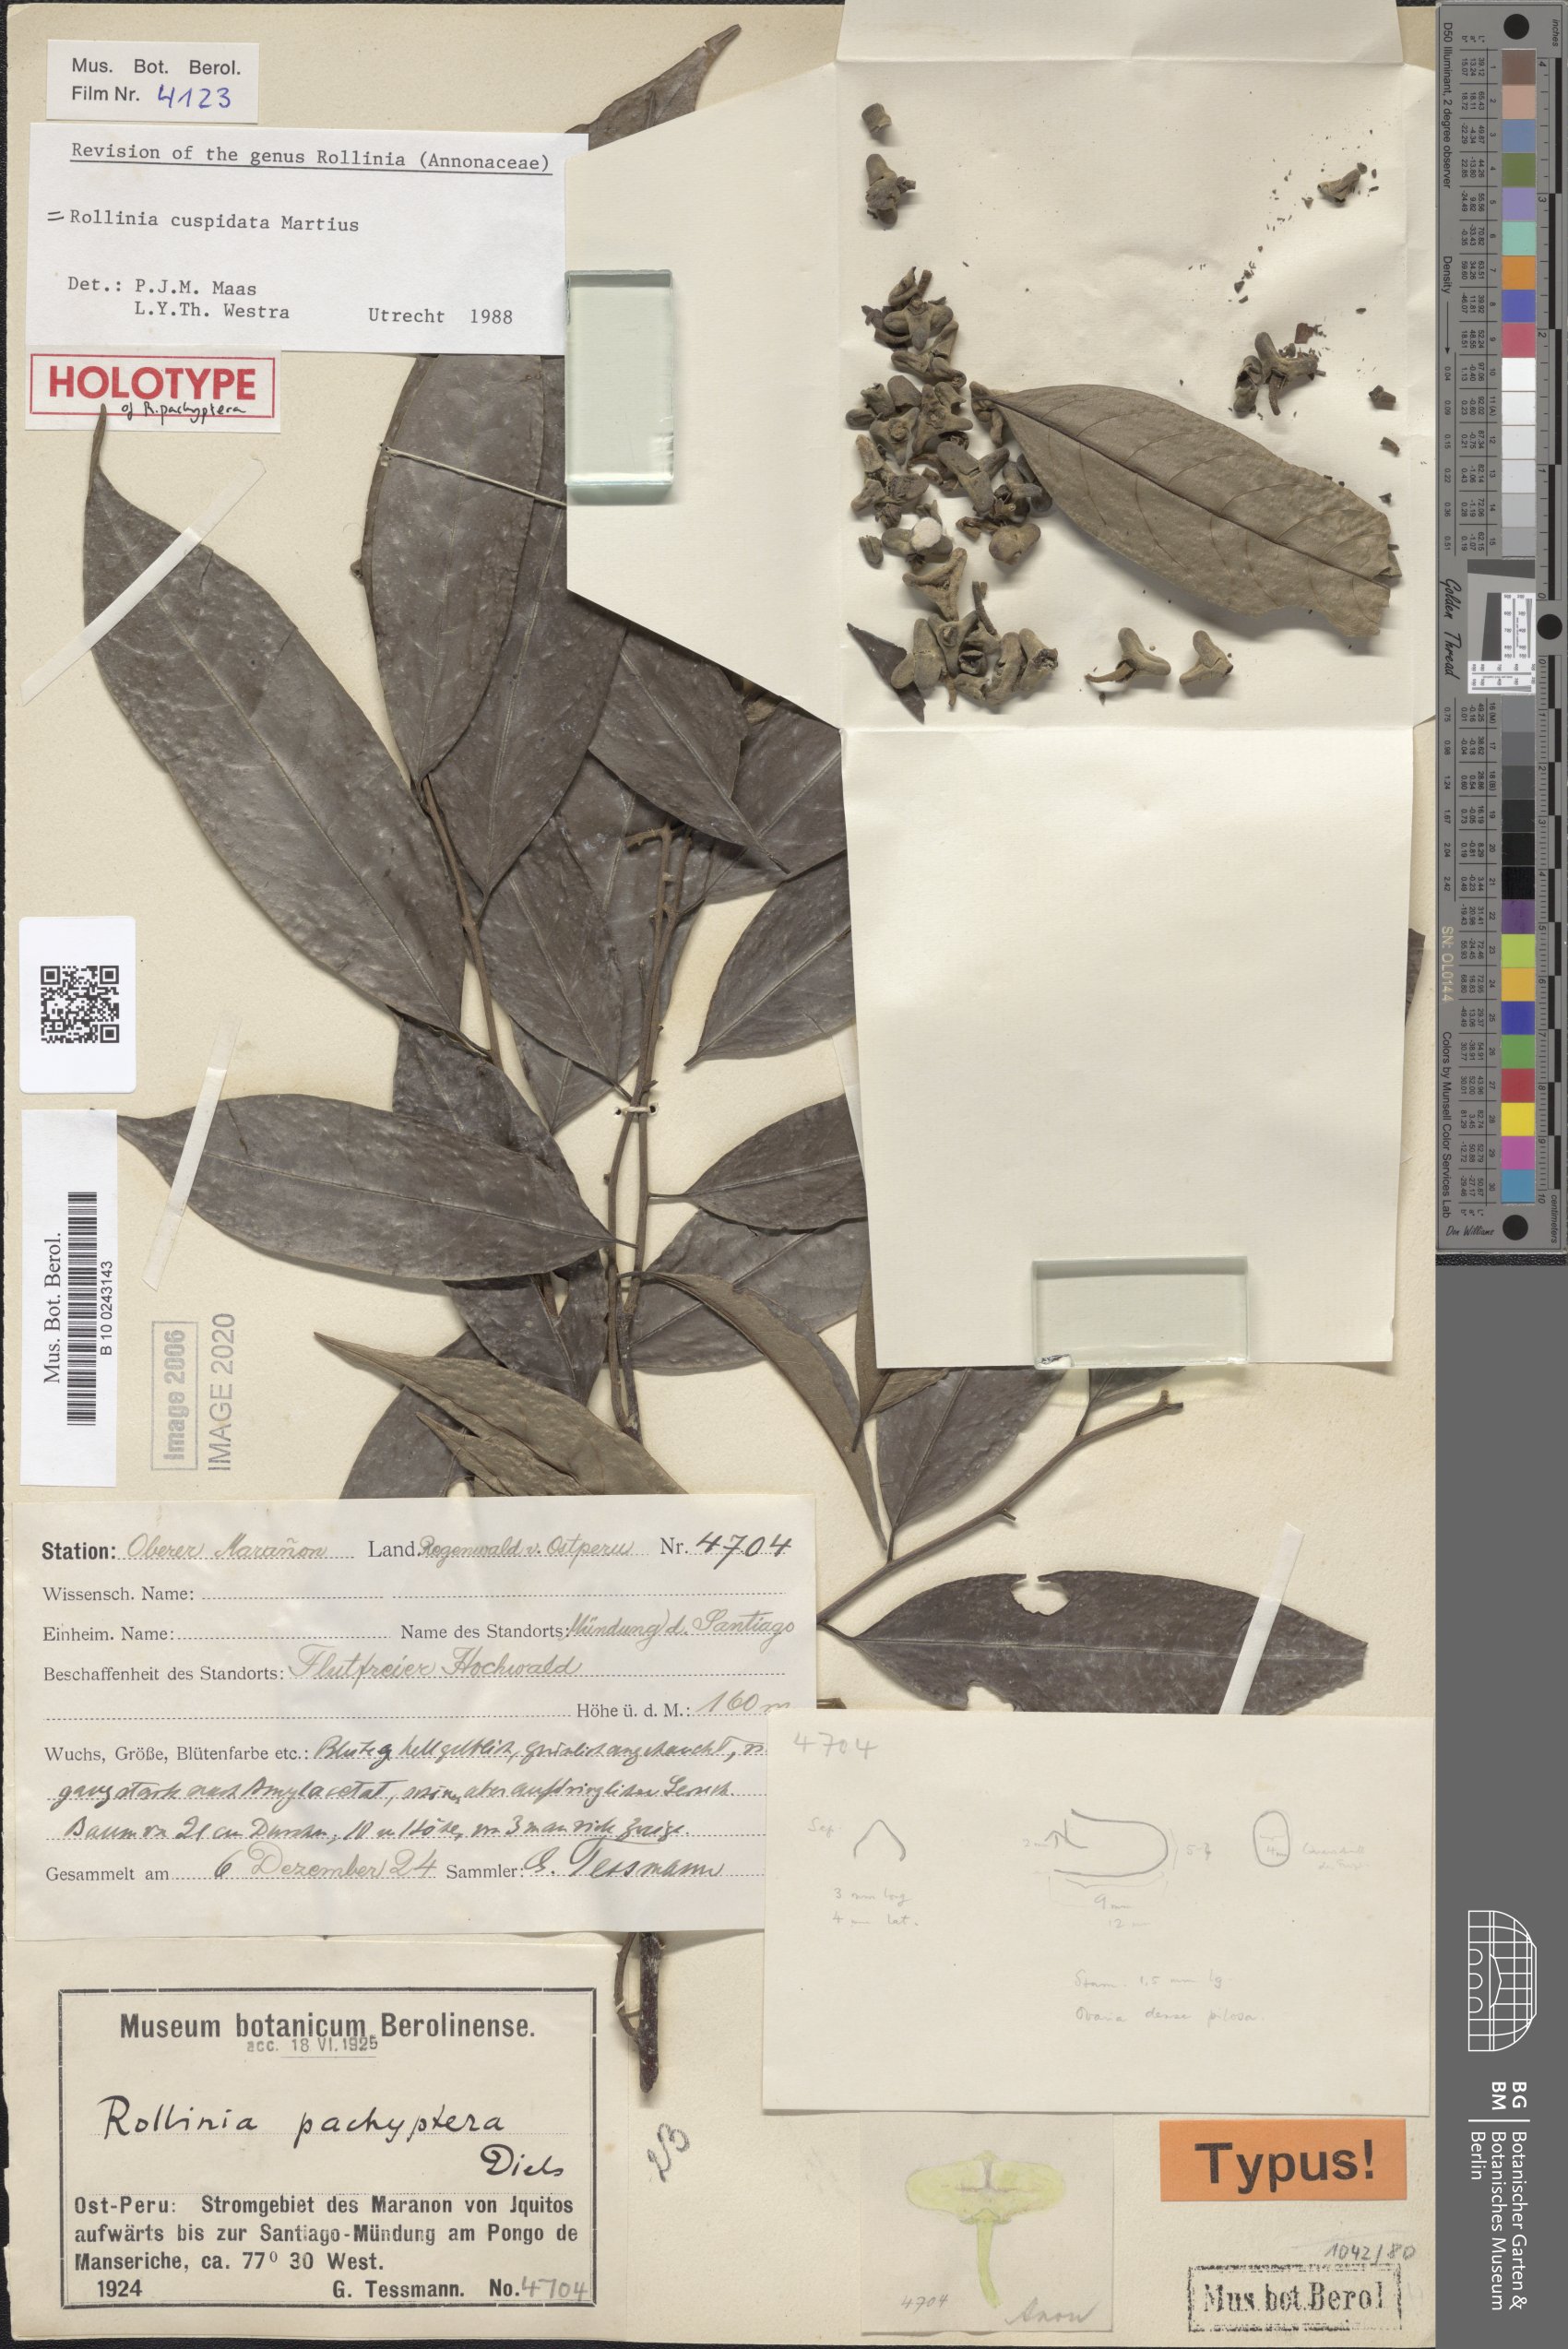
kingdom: Plantae
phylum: Tracheophyta
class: Magnoliopsida
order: Magnoliales
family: Annonaceae
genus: Annona
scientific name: Annona cuspidata
